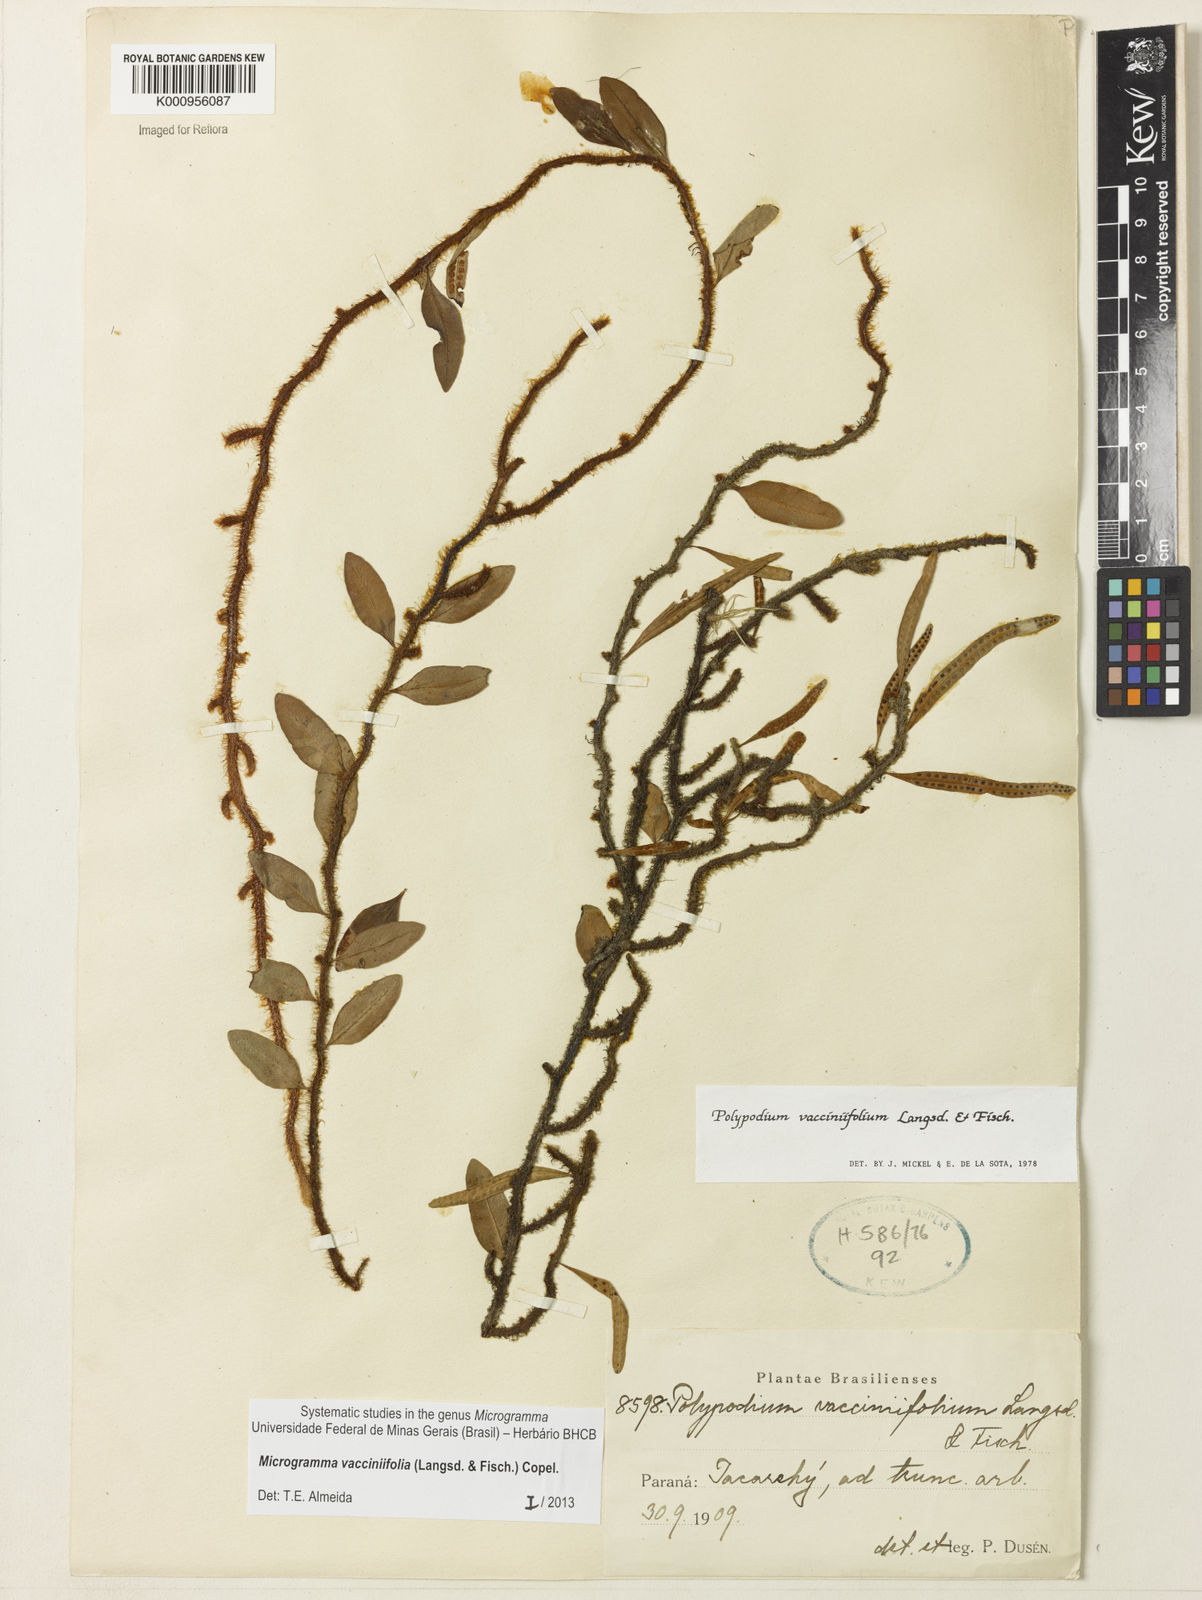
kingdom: Plantae
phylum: Tracheophyta
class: Polypodiopsida
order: Polypodiales
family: Polypodiaceae
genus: Phlebodium
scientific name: Phlebodium
